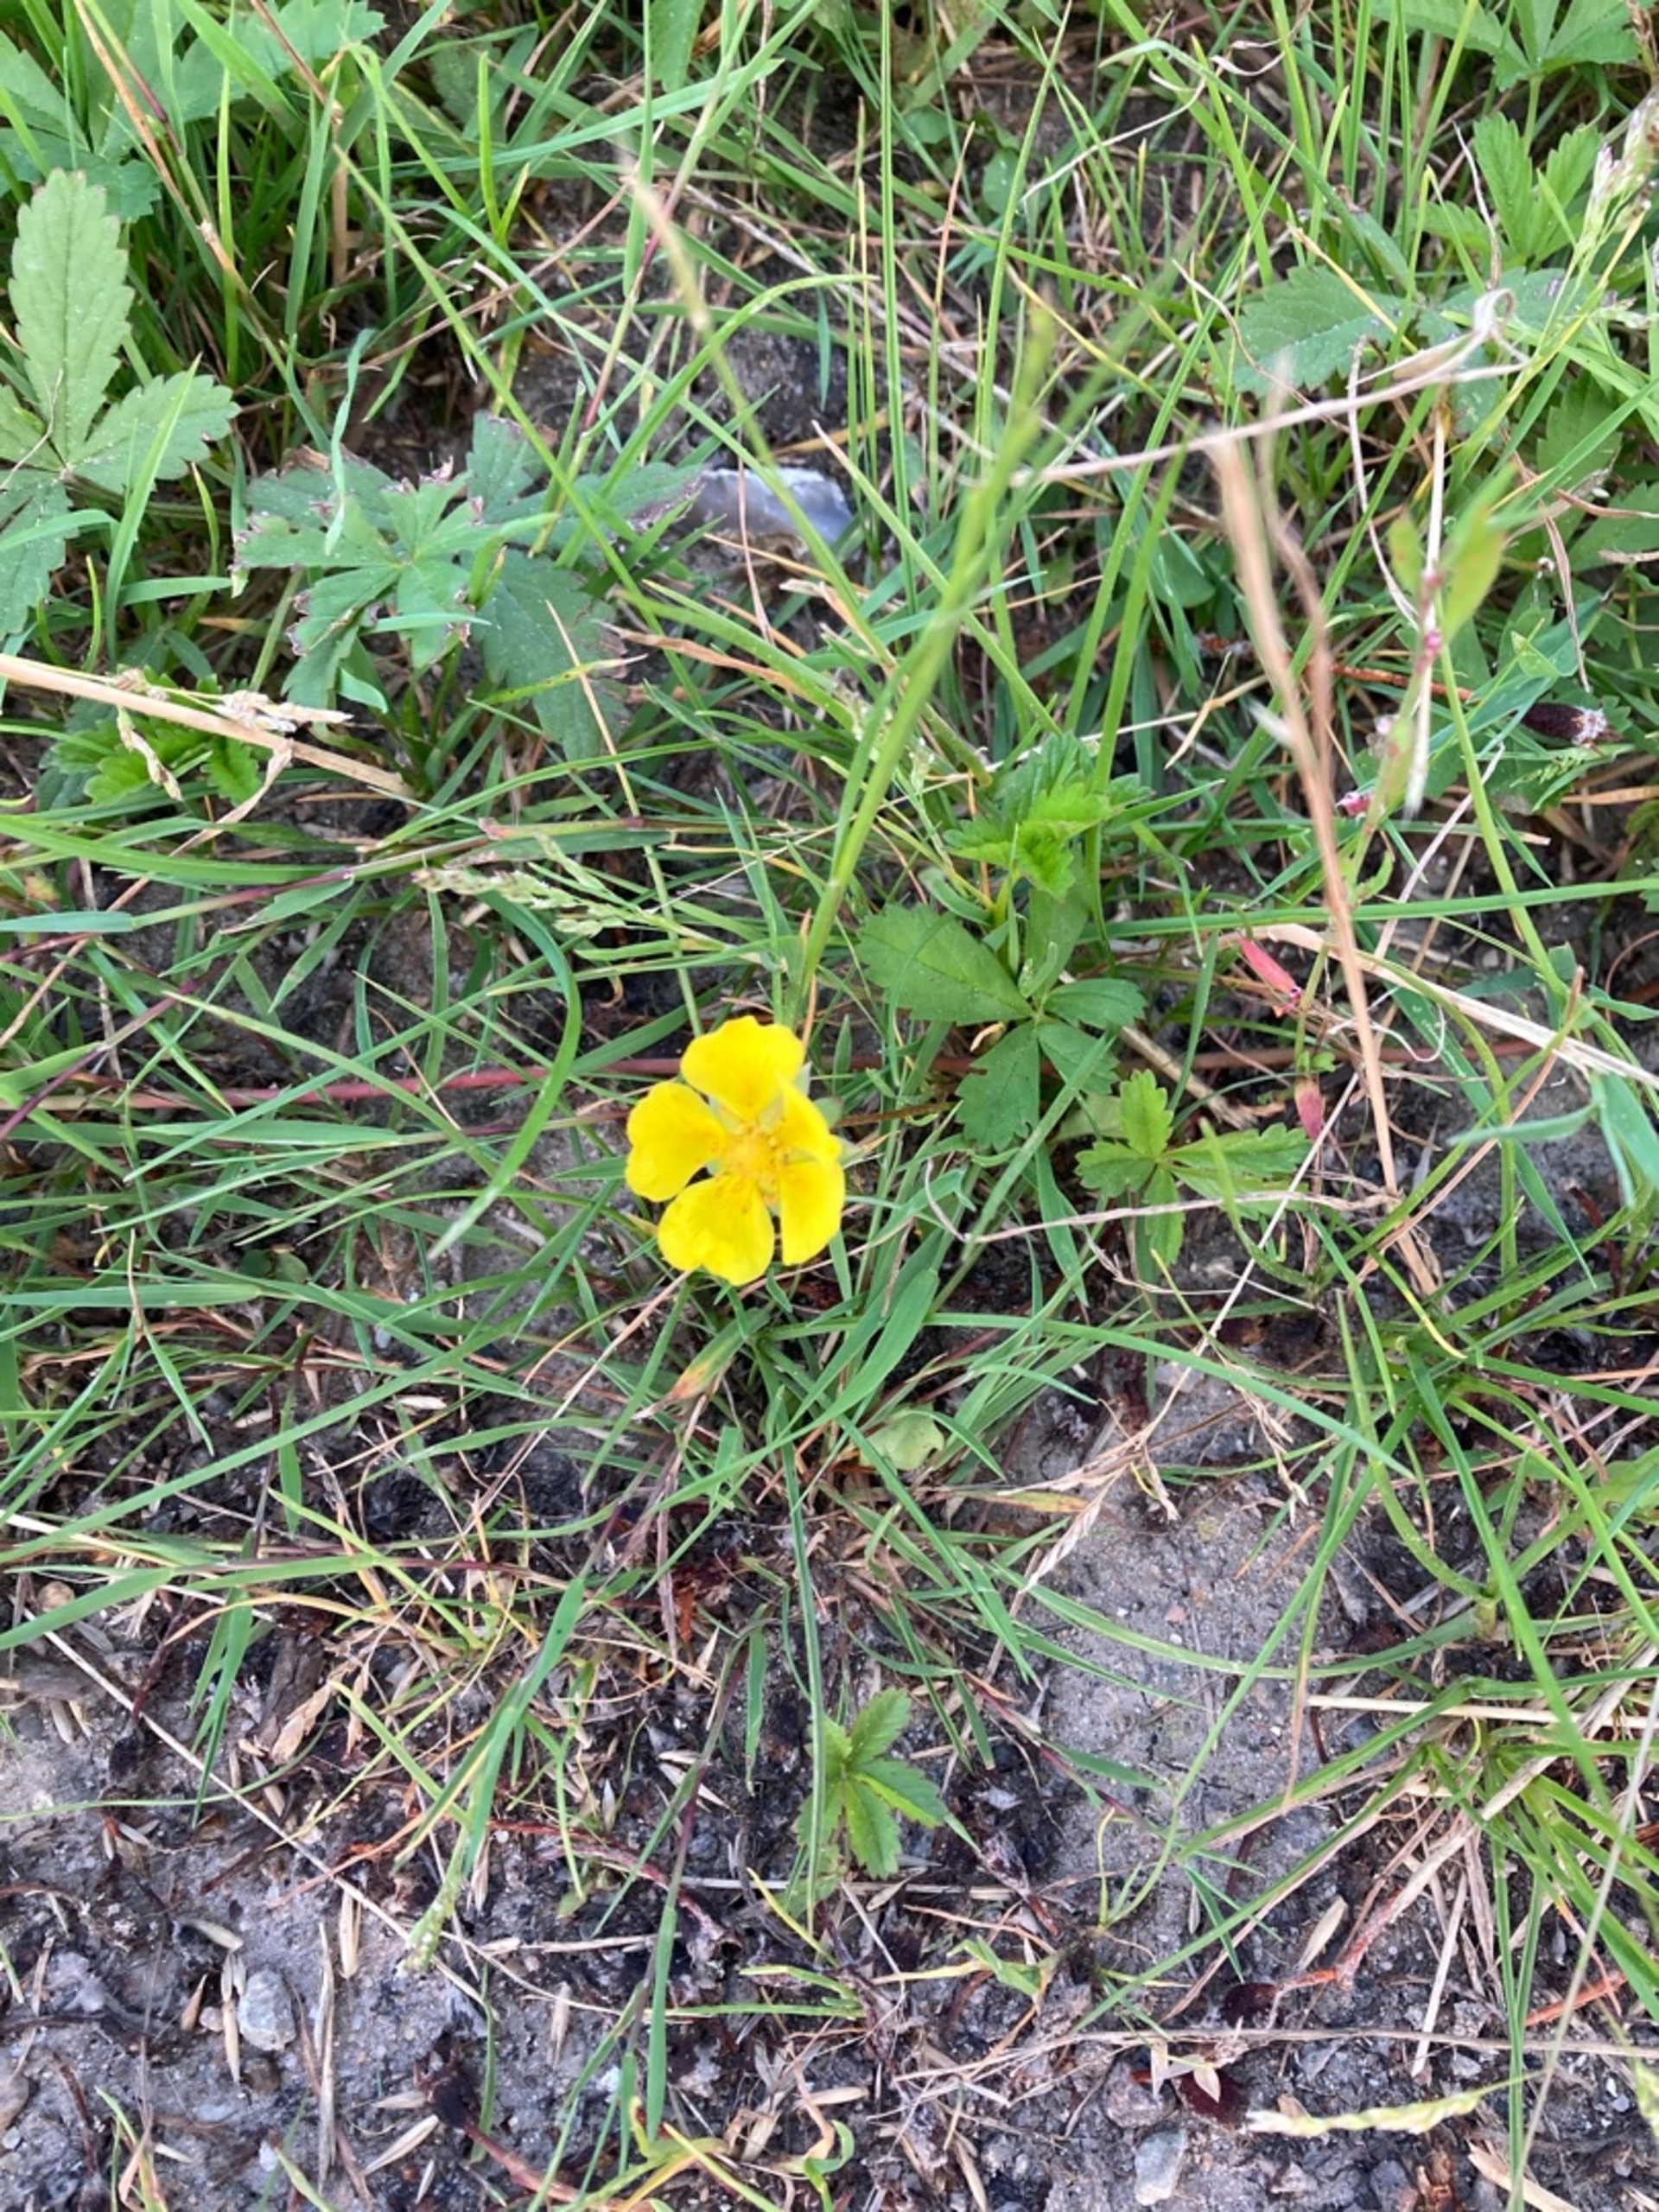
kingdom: Plantae
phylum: Tracheophyta
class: Magnoliopsida
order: Rosales
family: Rosaceae
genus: Potentilla
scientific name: Potentilla reptans
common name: Krybende potentil
